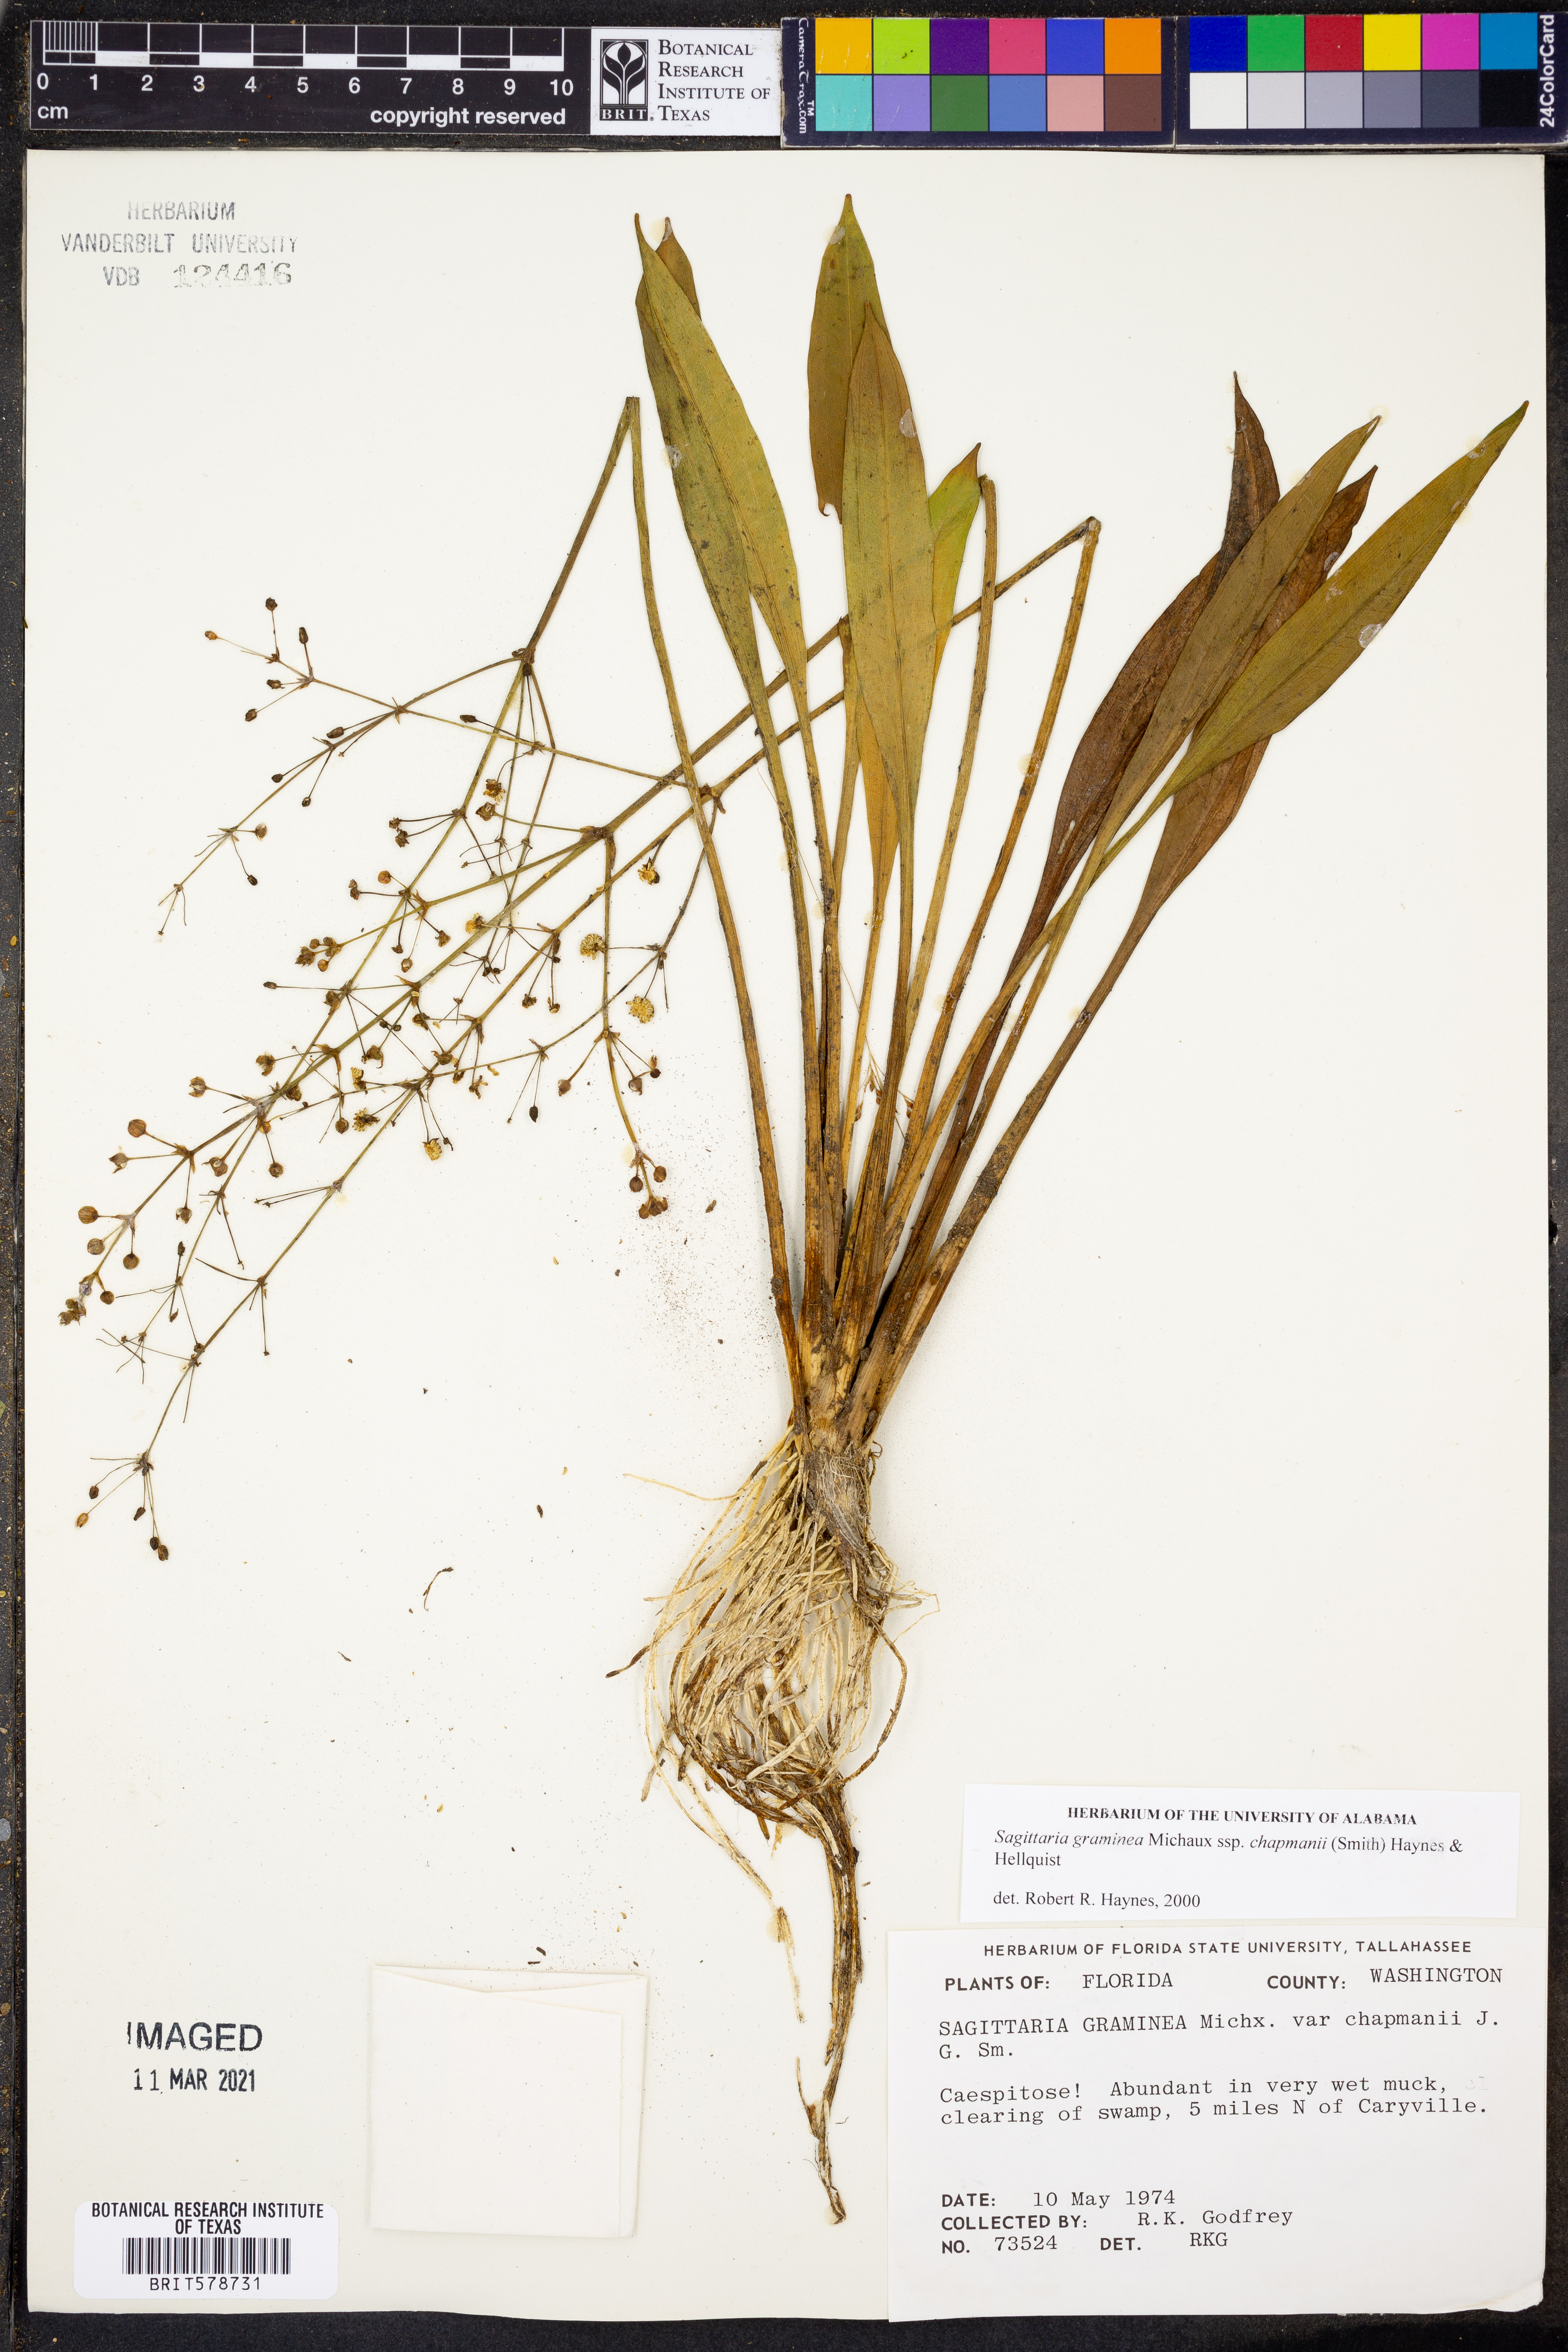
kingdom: Plantae
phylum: Tracheophyta
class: Liliopsida
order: Alismatales
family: Alismataceae
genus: Sagittaria
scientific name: Sagittaria chapmanii
